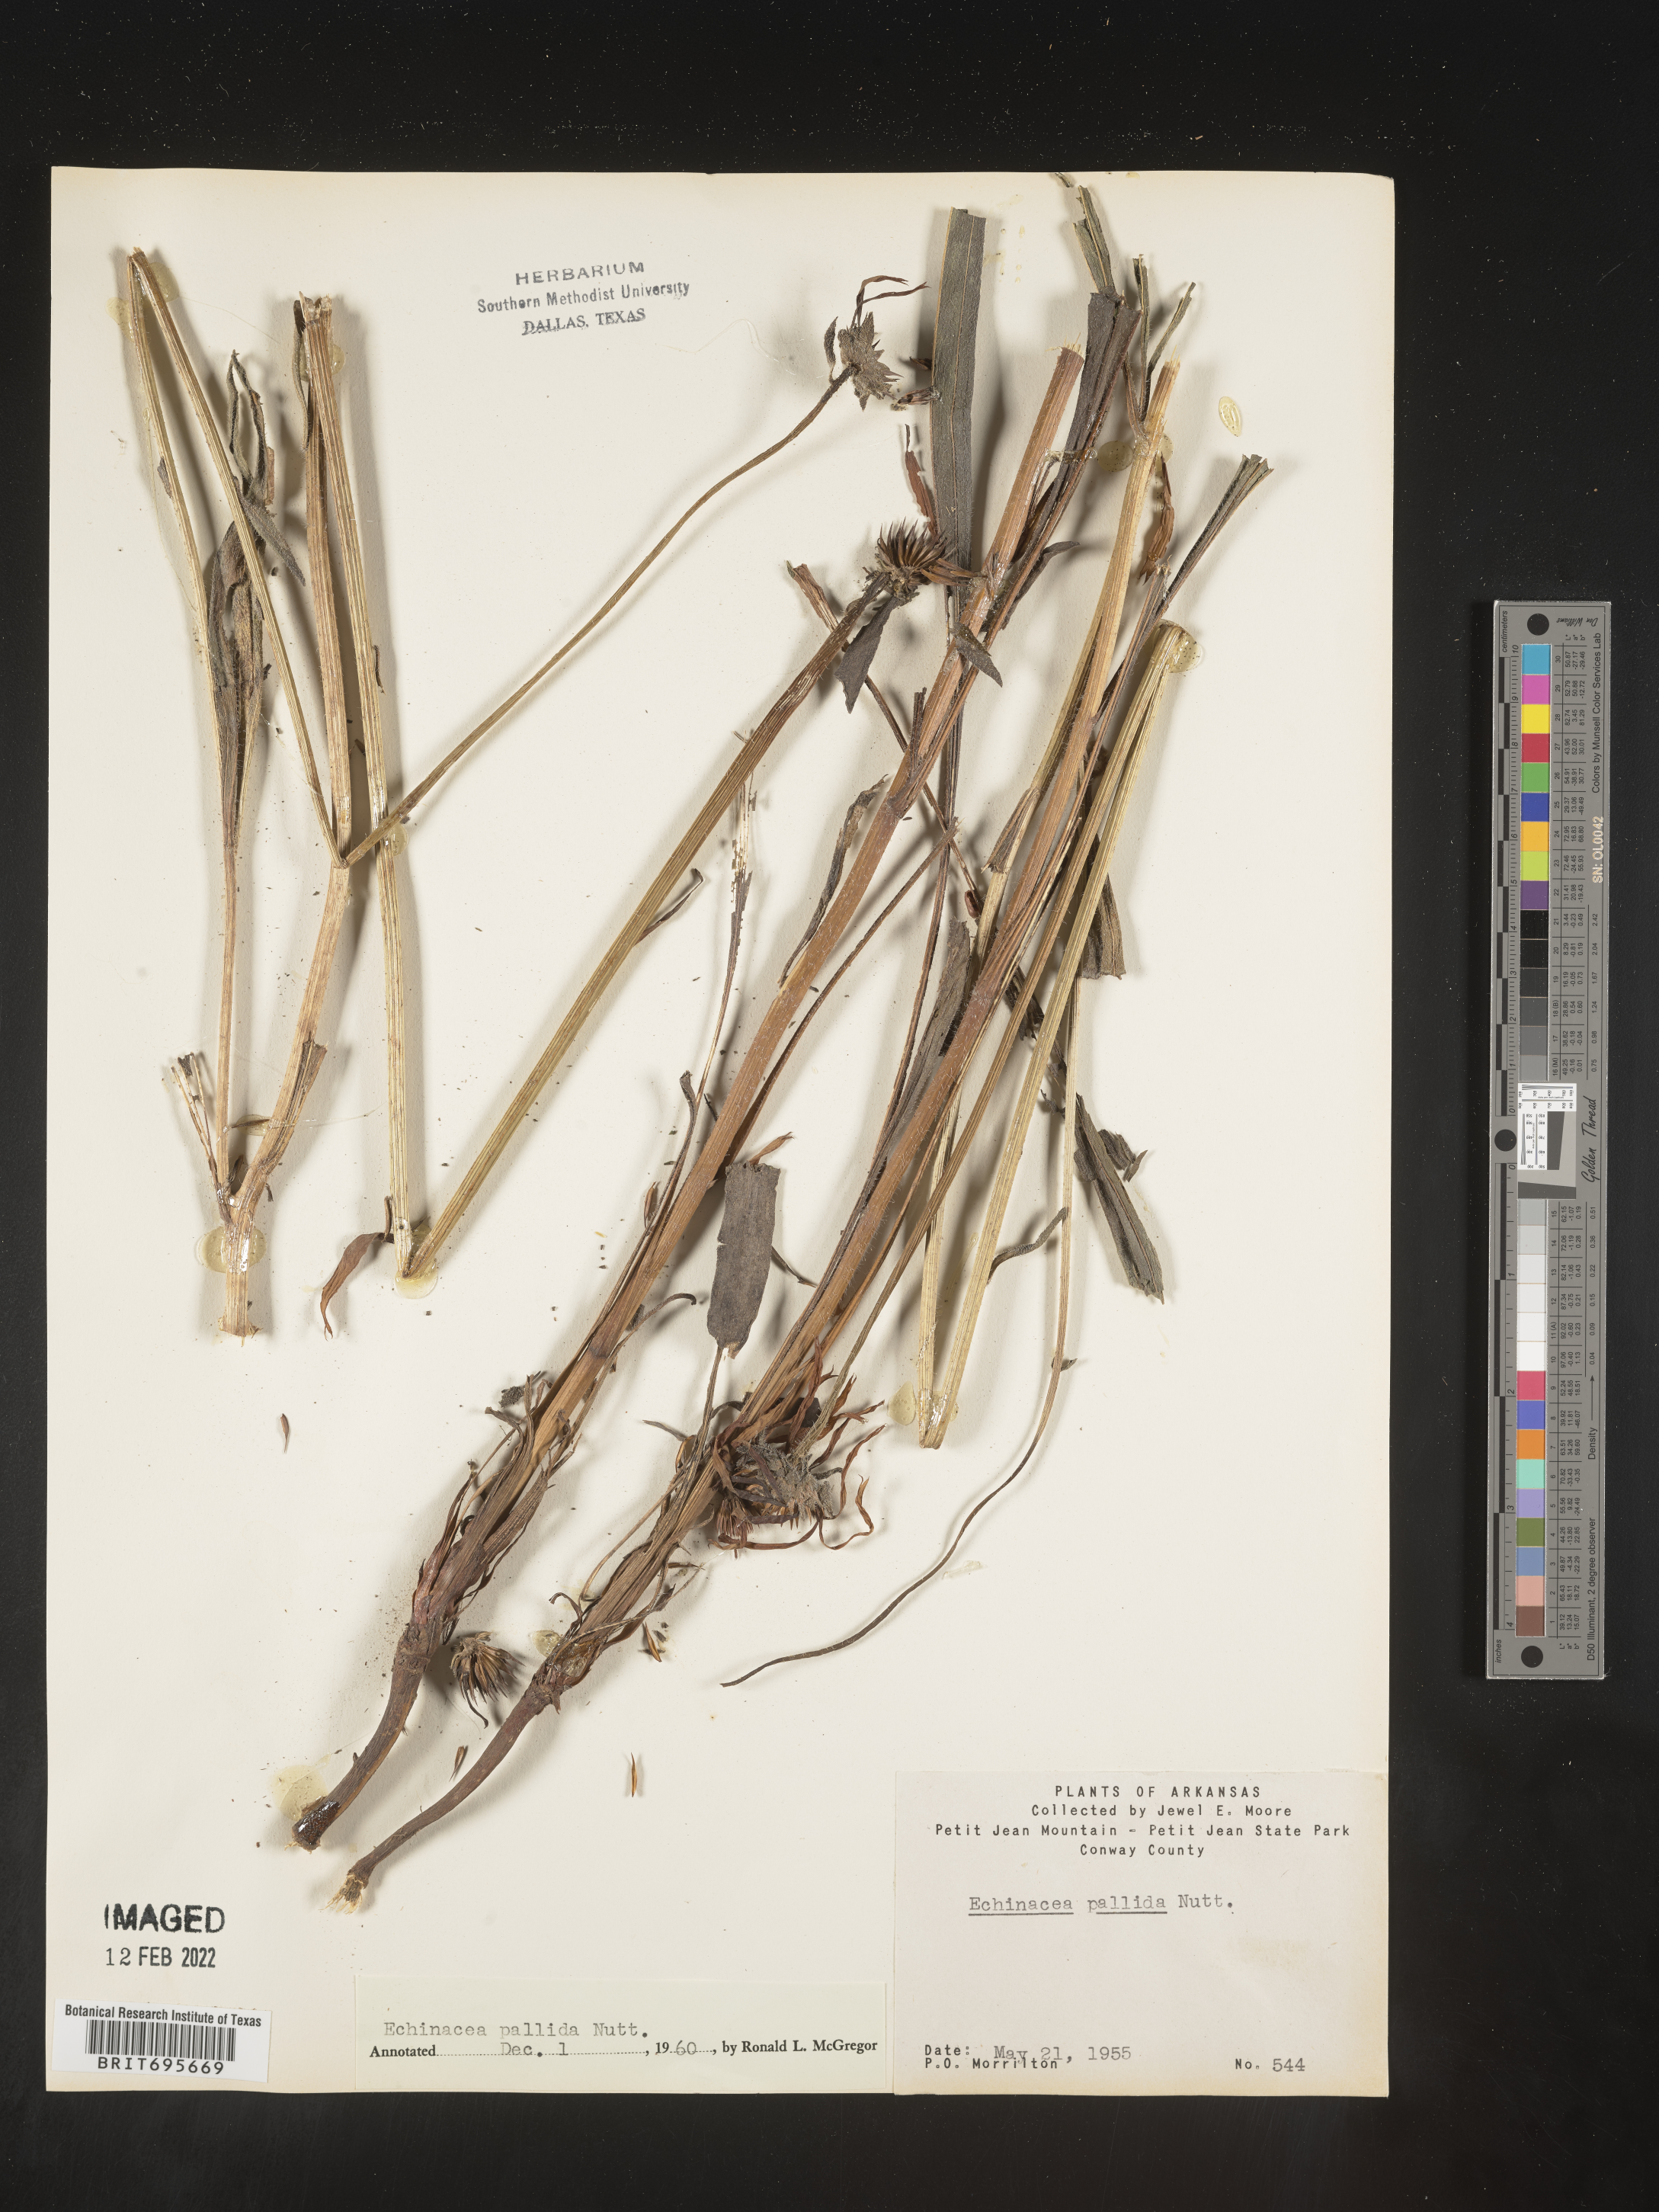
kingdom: Plantae
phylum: Tracheophyta
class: Magnoliopsida
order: Asterales
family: Asteraceae
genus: Echinacea
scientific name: Echinacea pallida
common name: Pale echinacea
